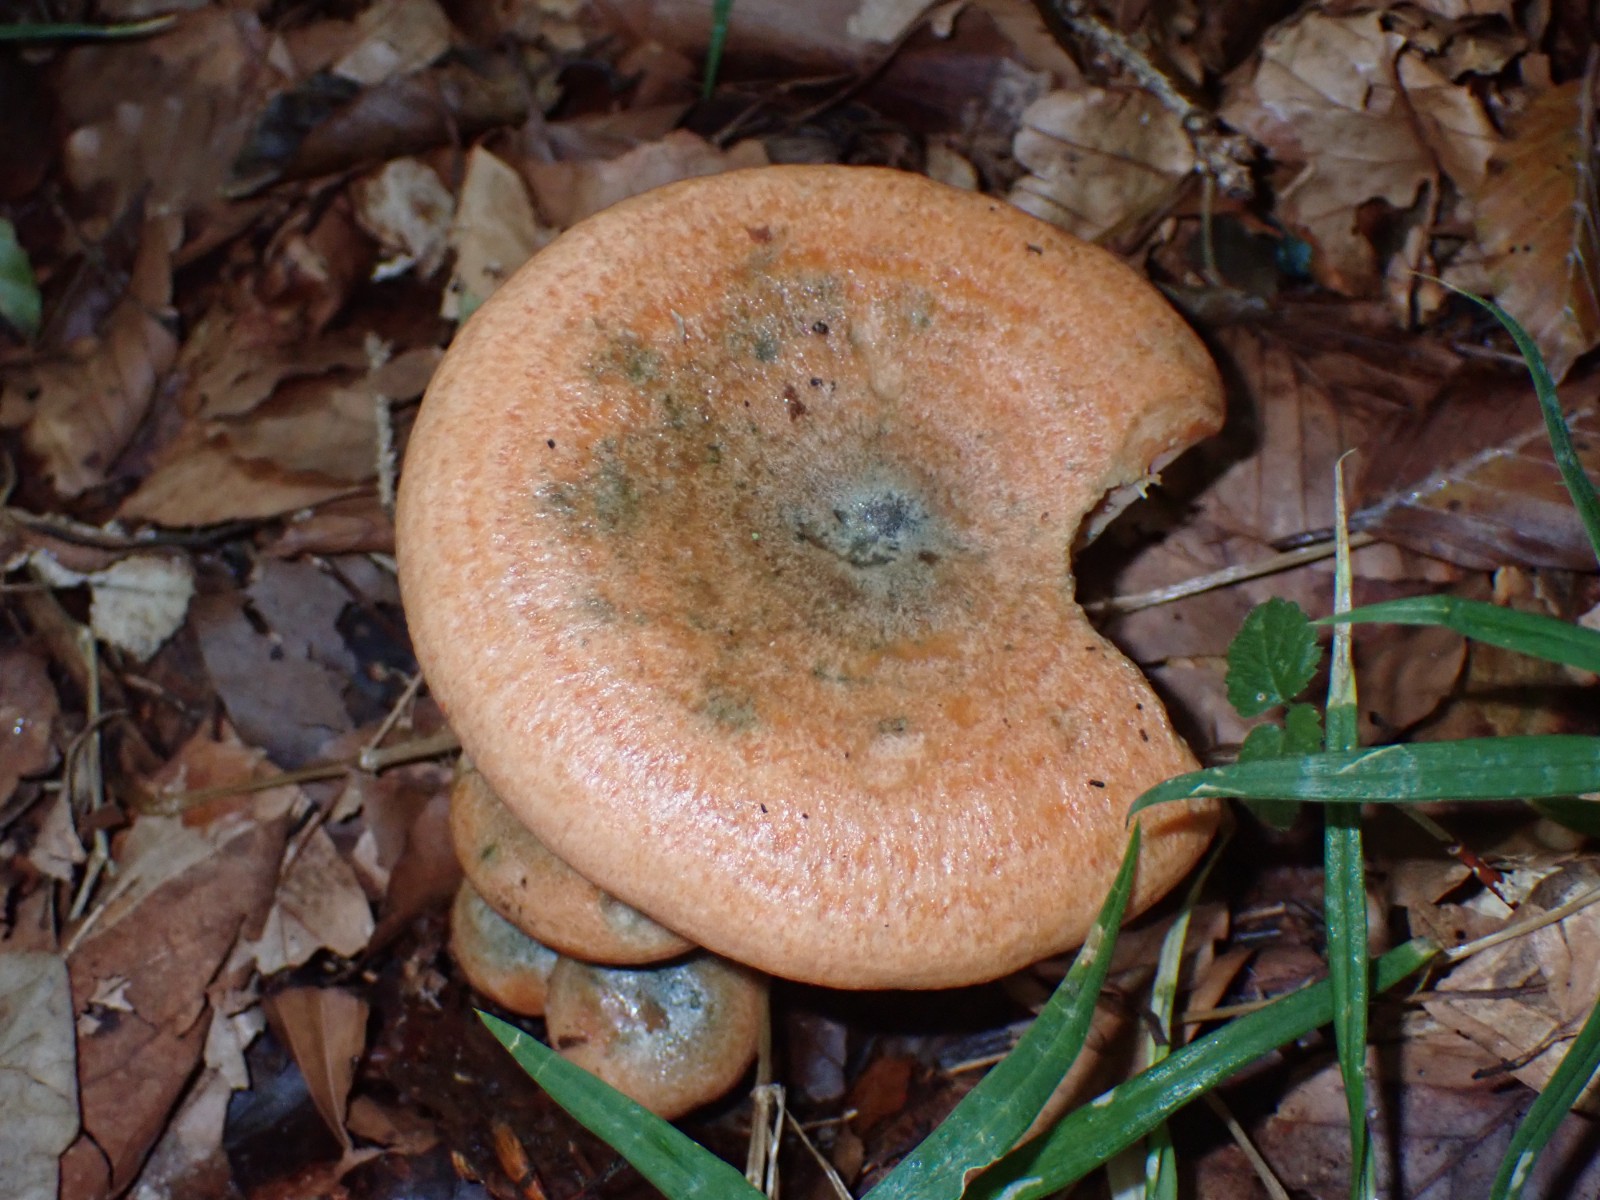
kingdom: Fungi
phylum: Basidiomycota
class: Agaricomycetes
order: Russulales
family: Russulaceae
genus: Lactarius
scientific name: Lactarius deterrimus
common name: gran-mælkehat
